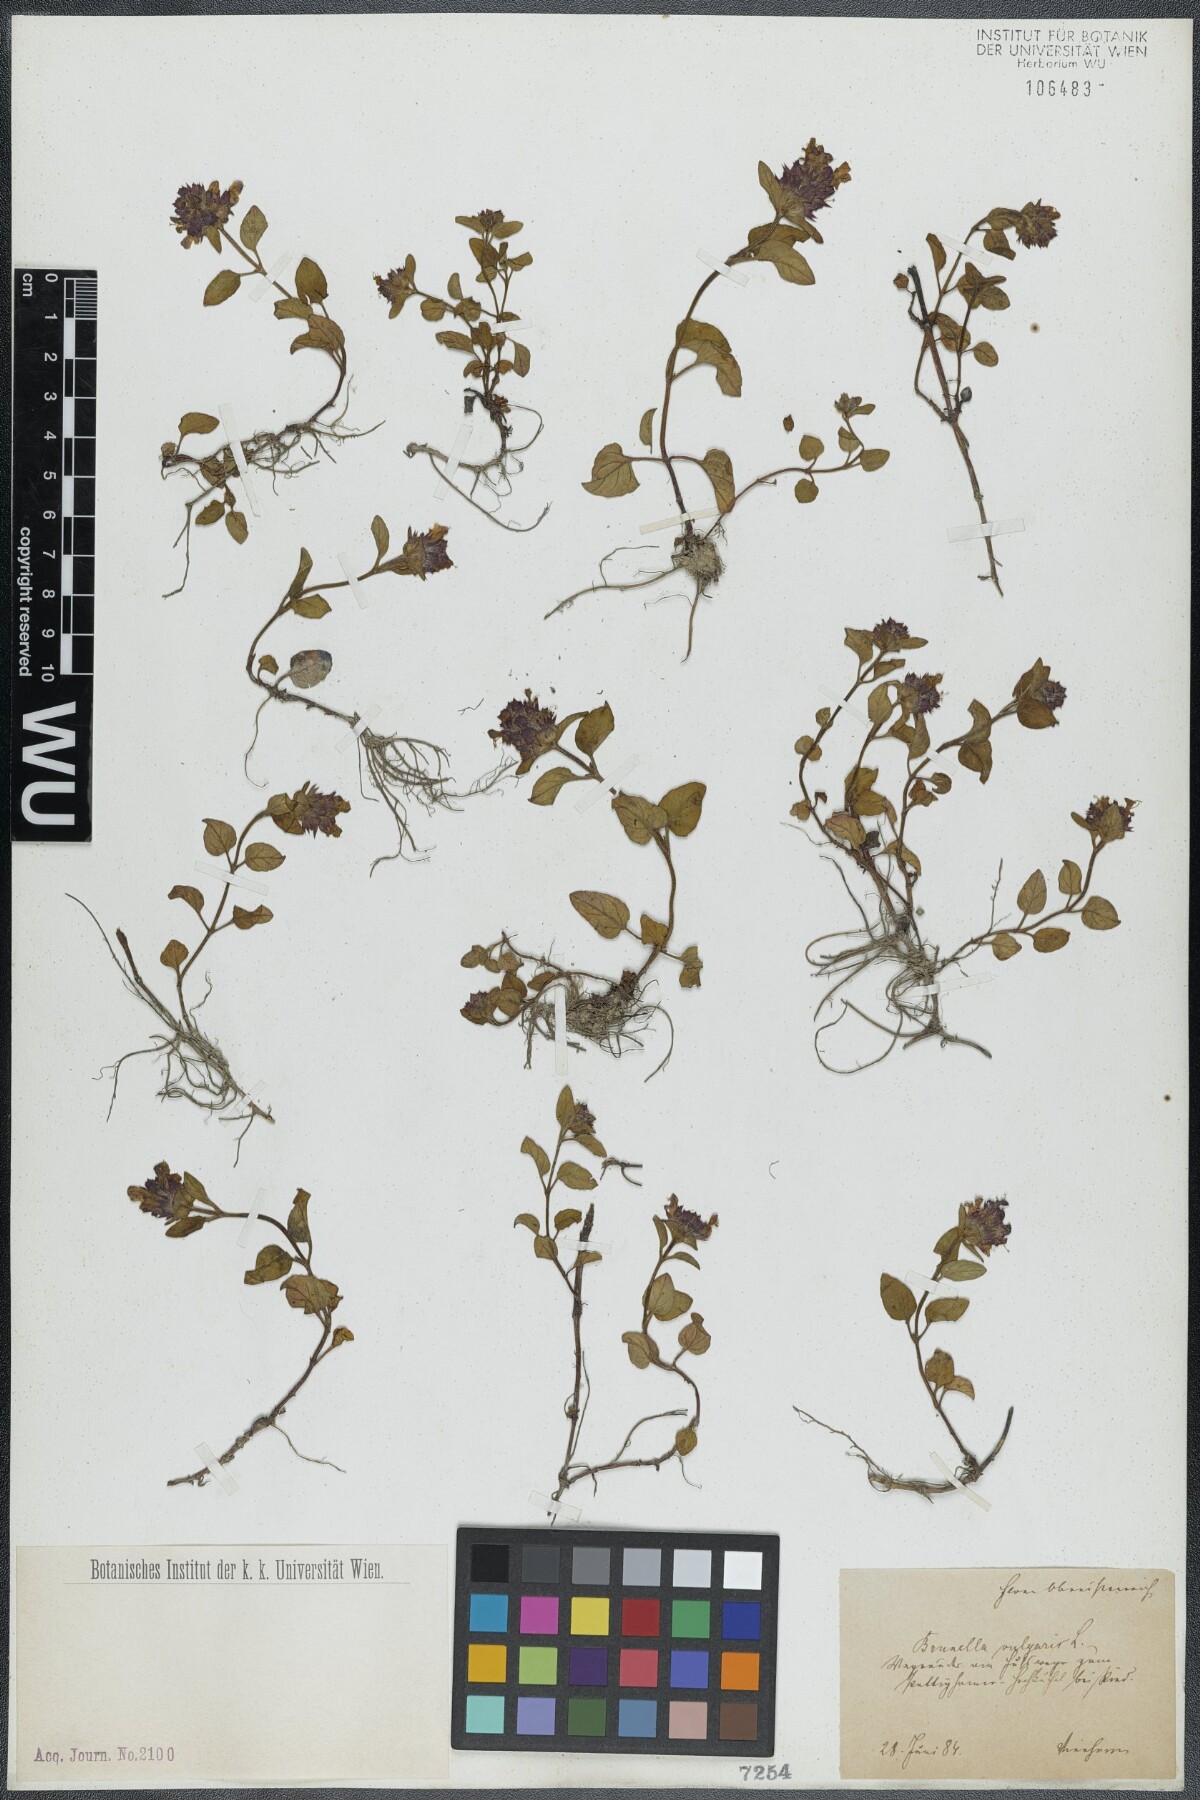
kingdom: Plantae
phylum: Tracheophyta
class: Magnoliopsida
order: Lamiales
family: Lamiaceae
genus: Prunella
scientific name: Prunella vulgaris
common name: Heal-all
